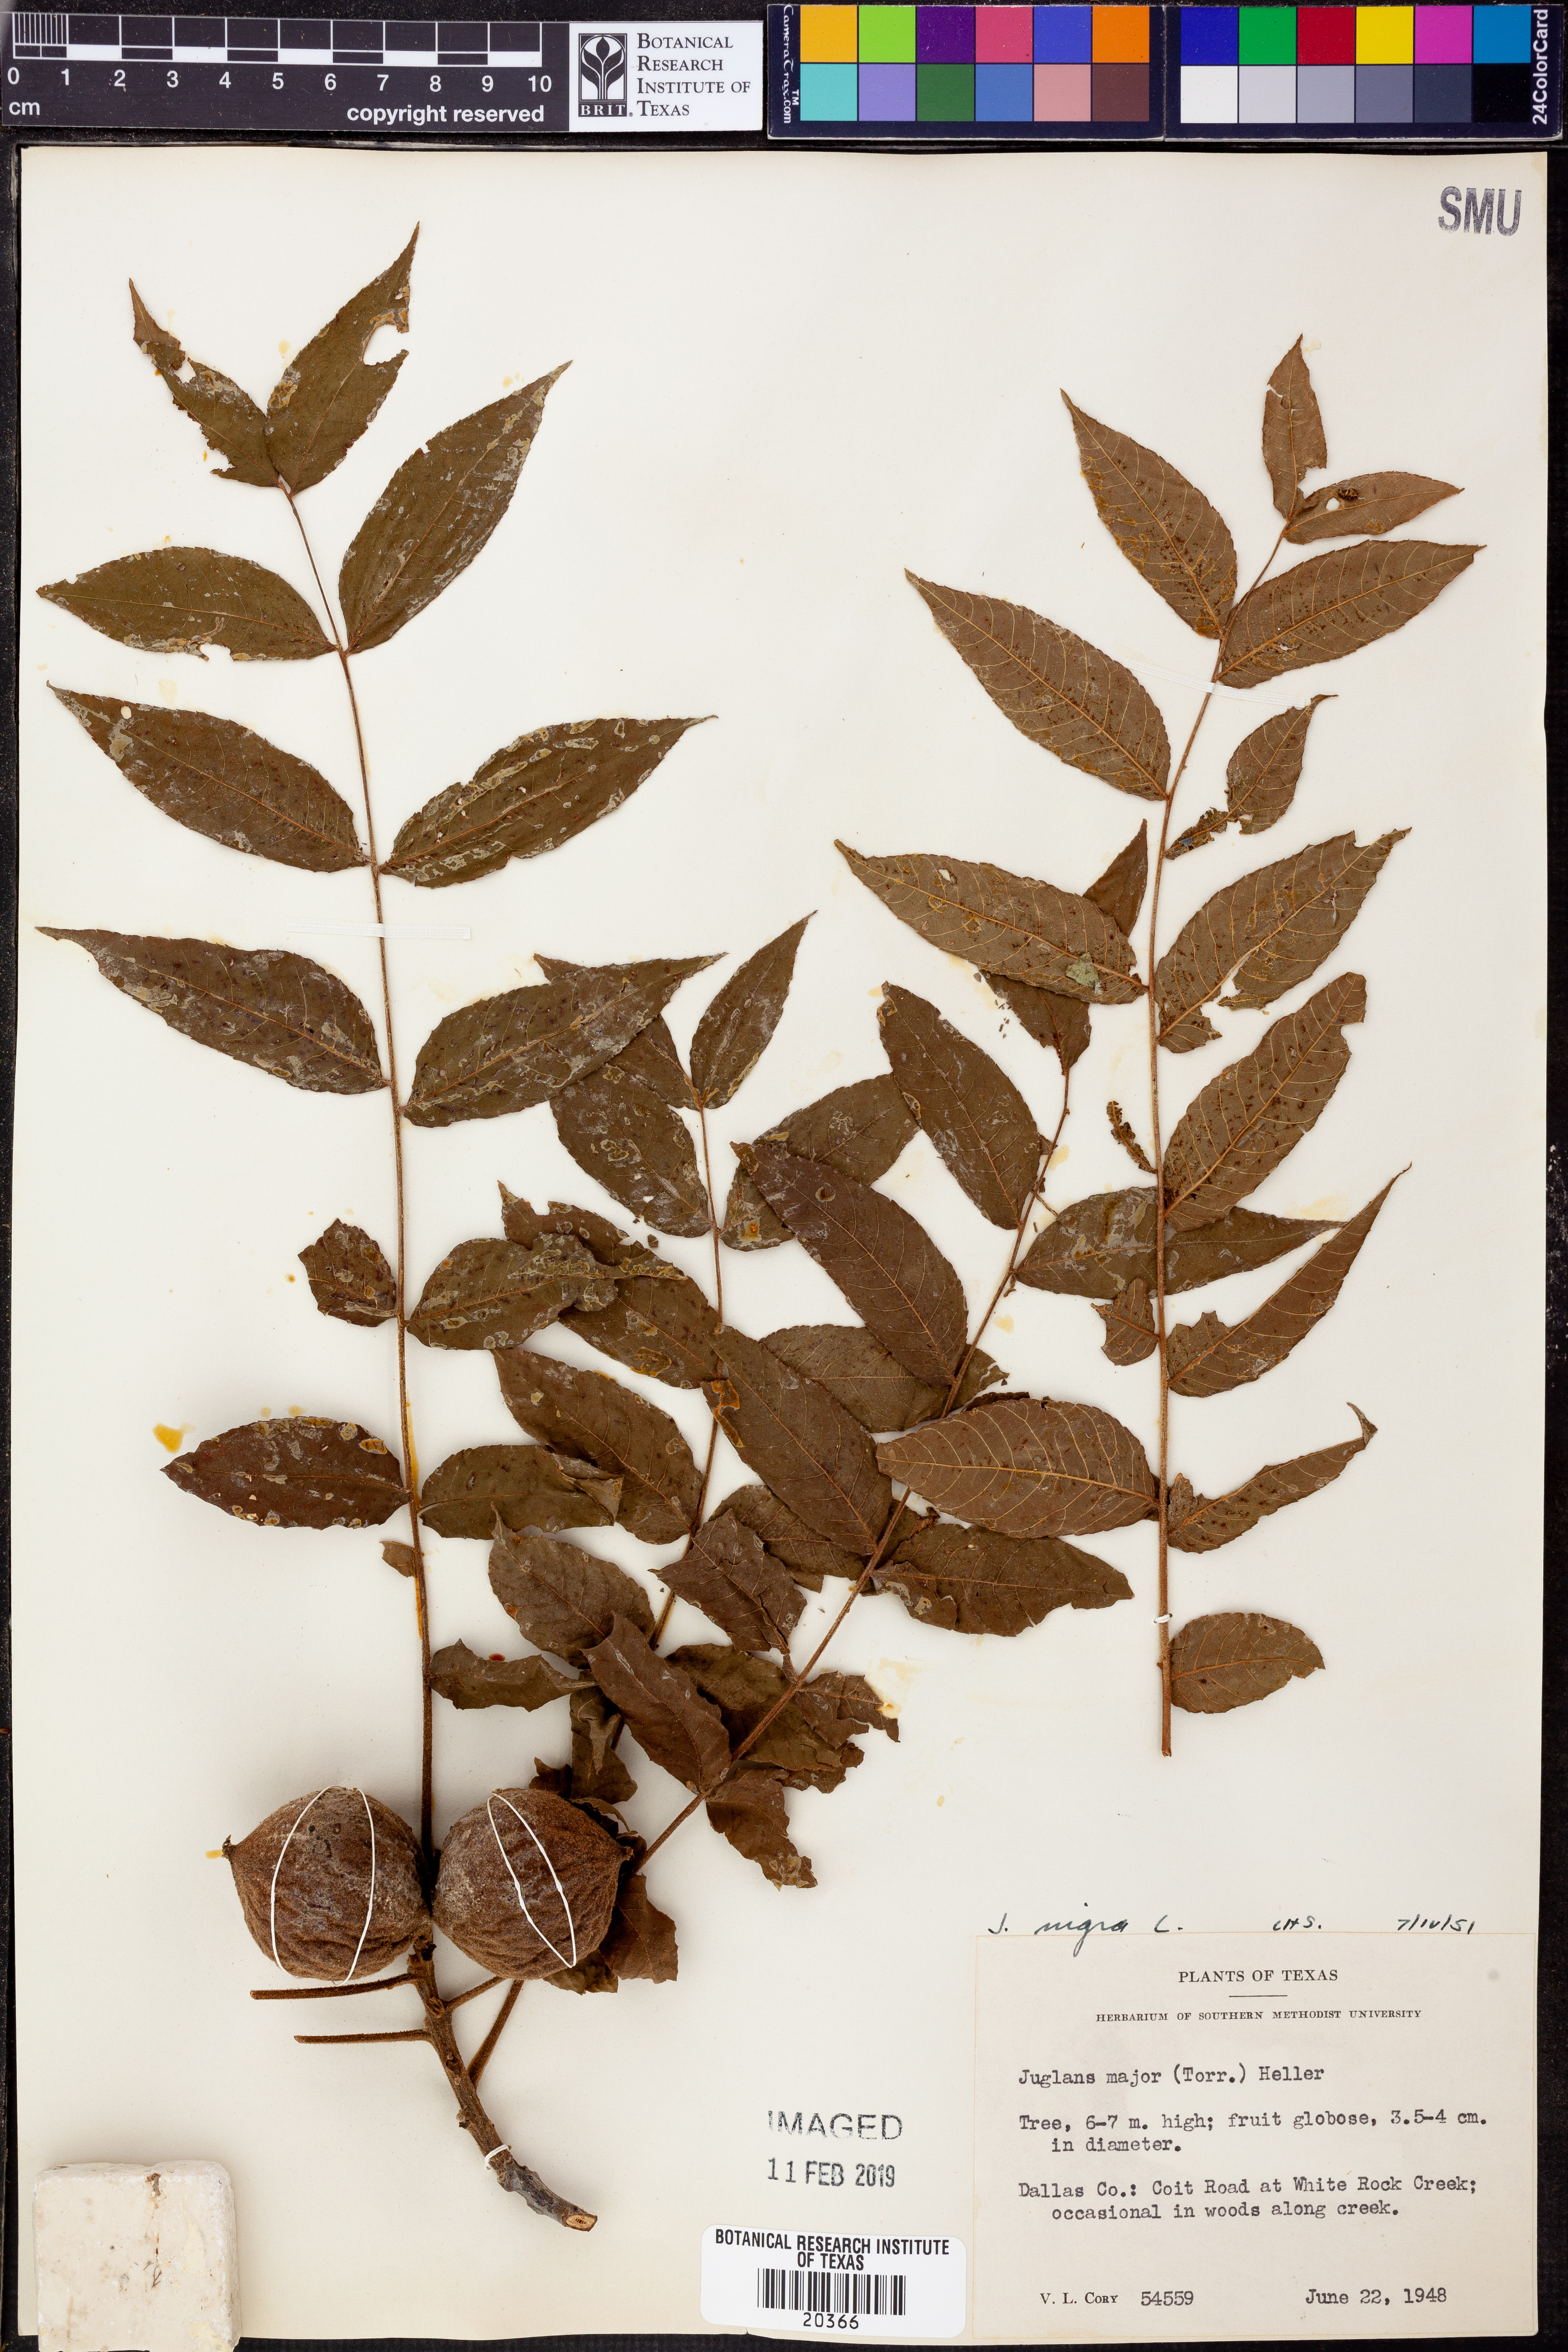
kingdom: Plantae
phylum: Tracheophyta
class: Magnoliopsida
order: Fagales
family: Juglandaceae
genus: Juglans
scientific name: Juglans nigra
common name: Black walnut
